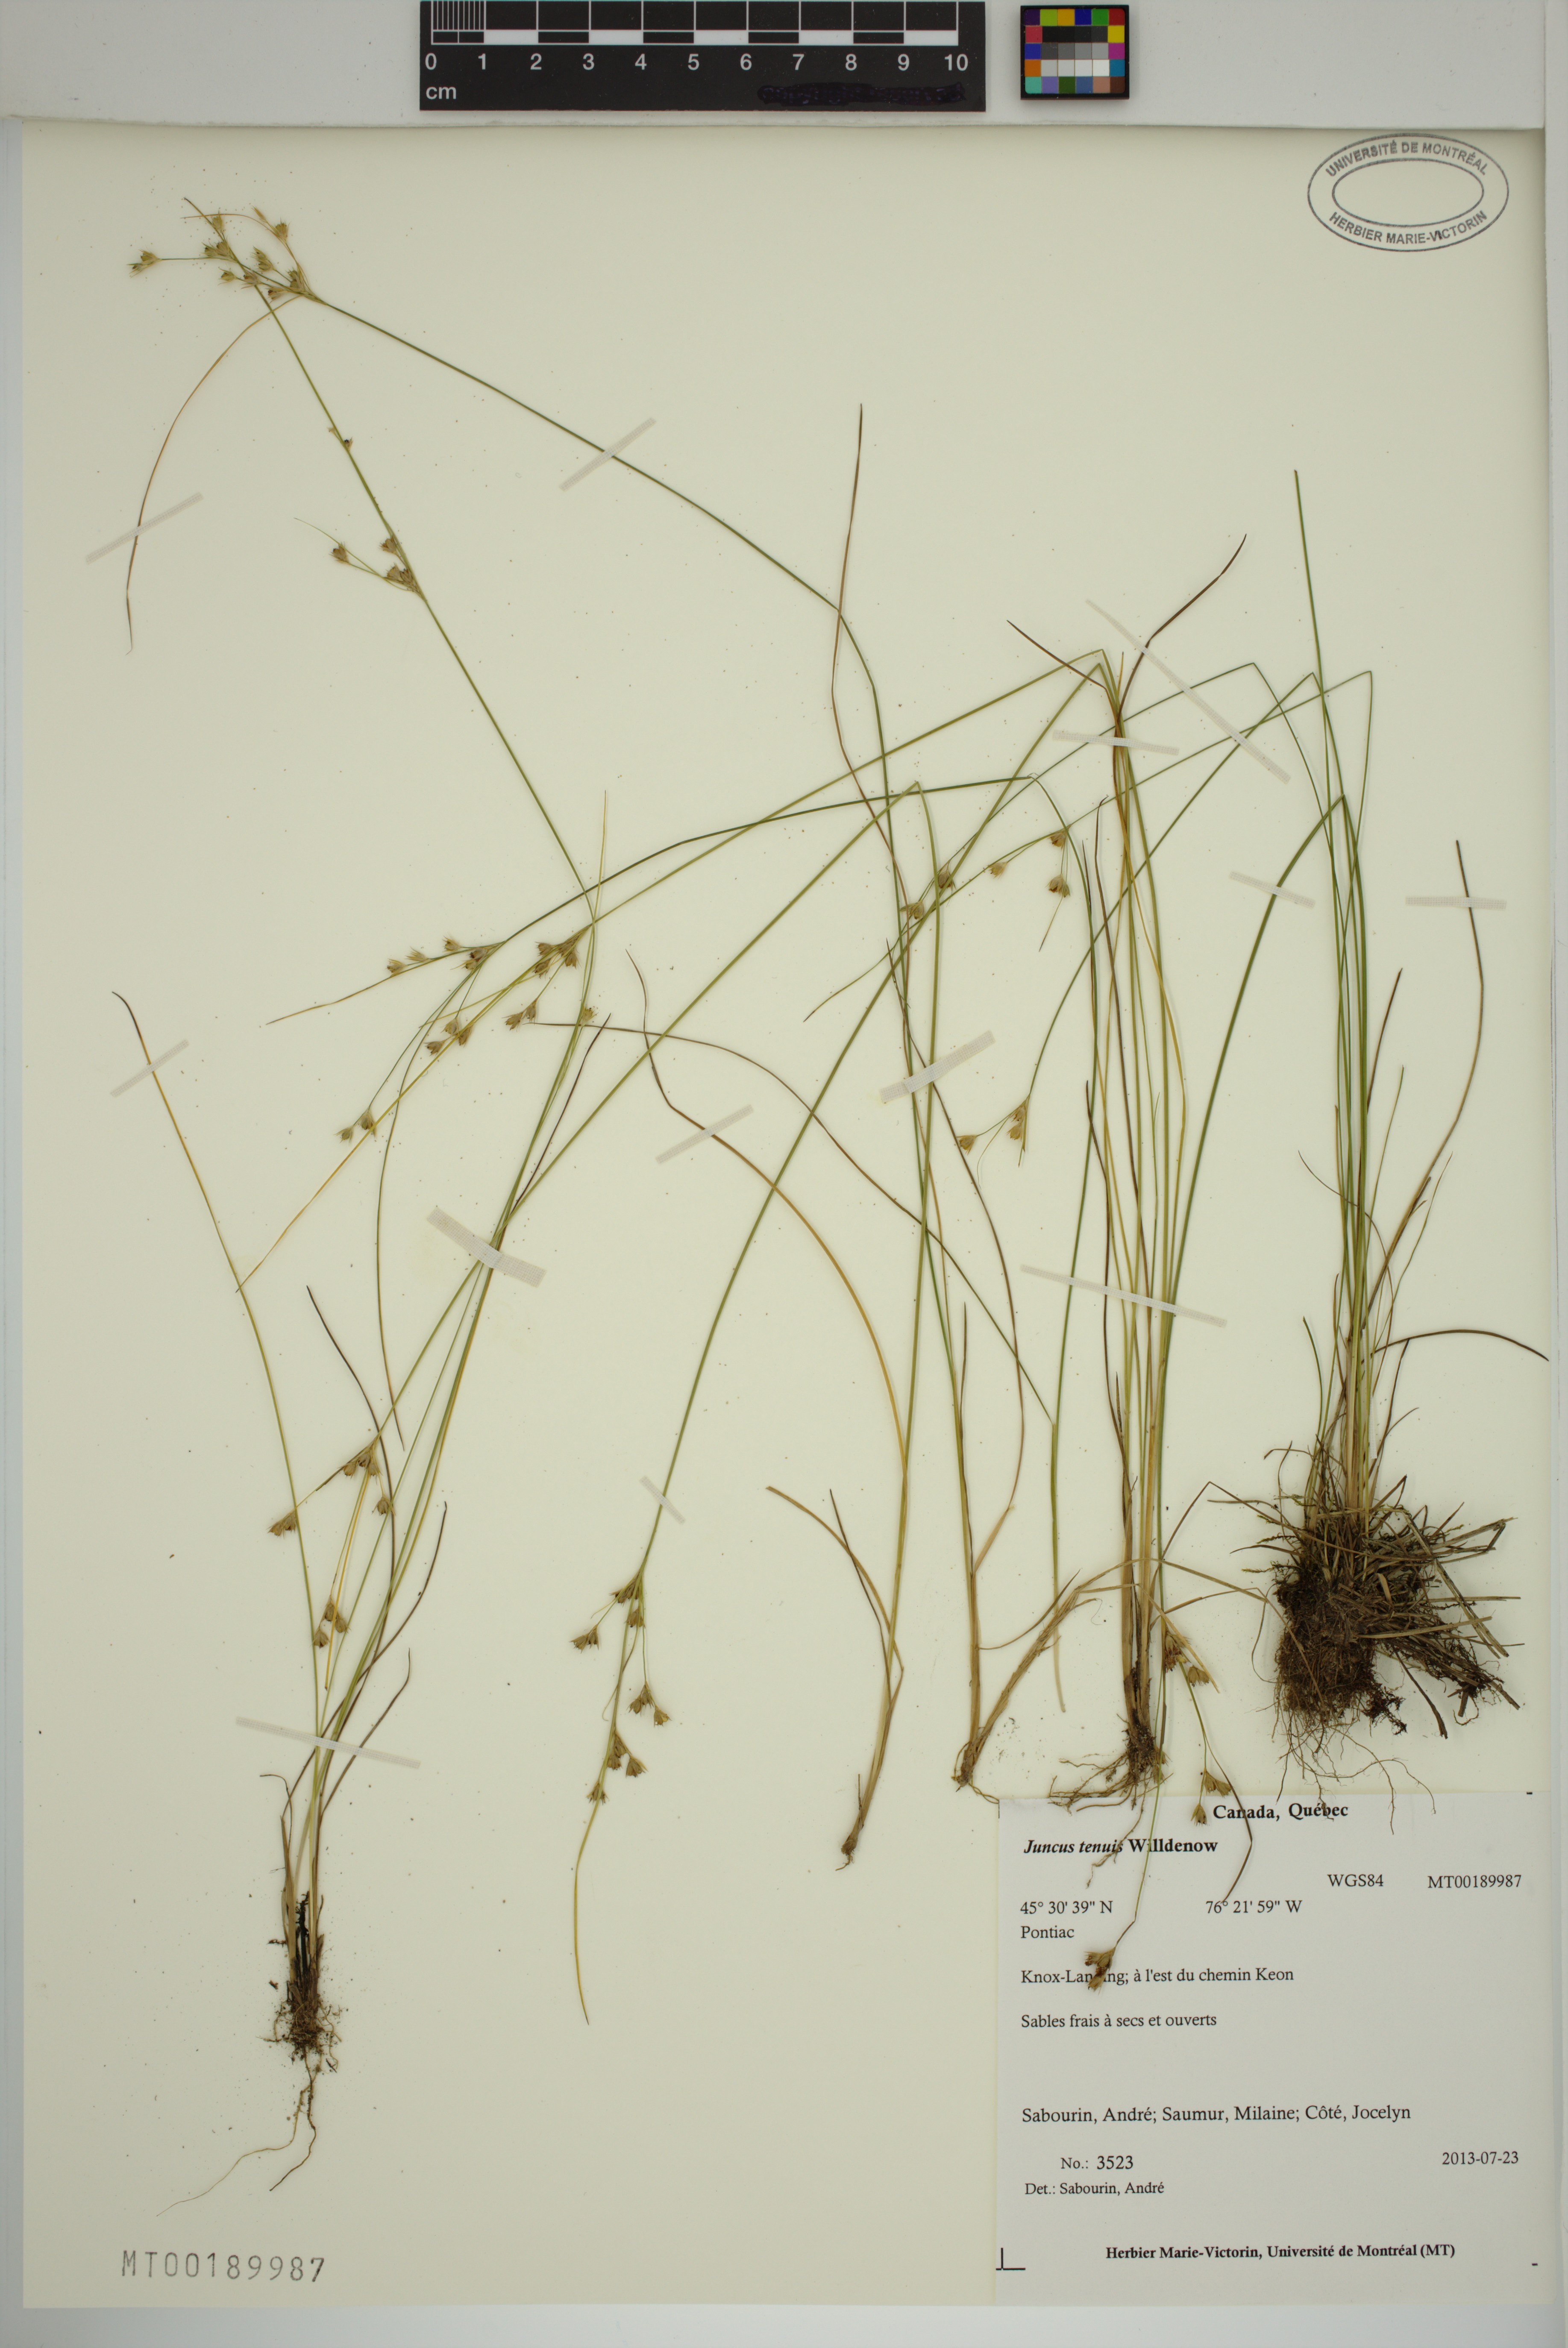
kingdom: Plantae
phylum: Tracheophyta
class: Liliopsida
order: Poales
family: Juncaceae
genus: Juncus
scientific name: Juncus tenuis
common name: Slender rush
